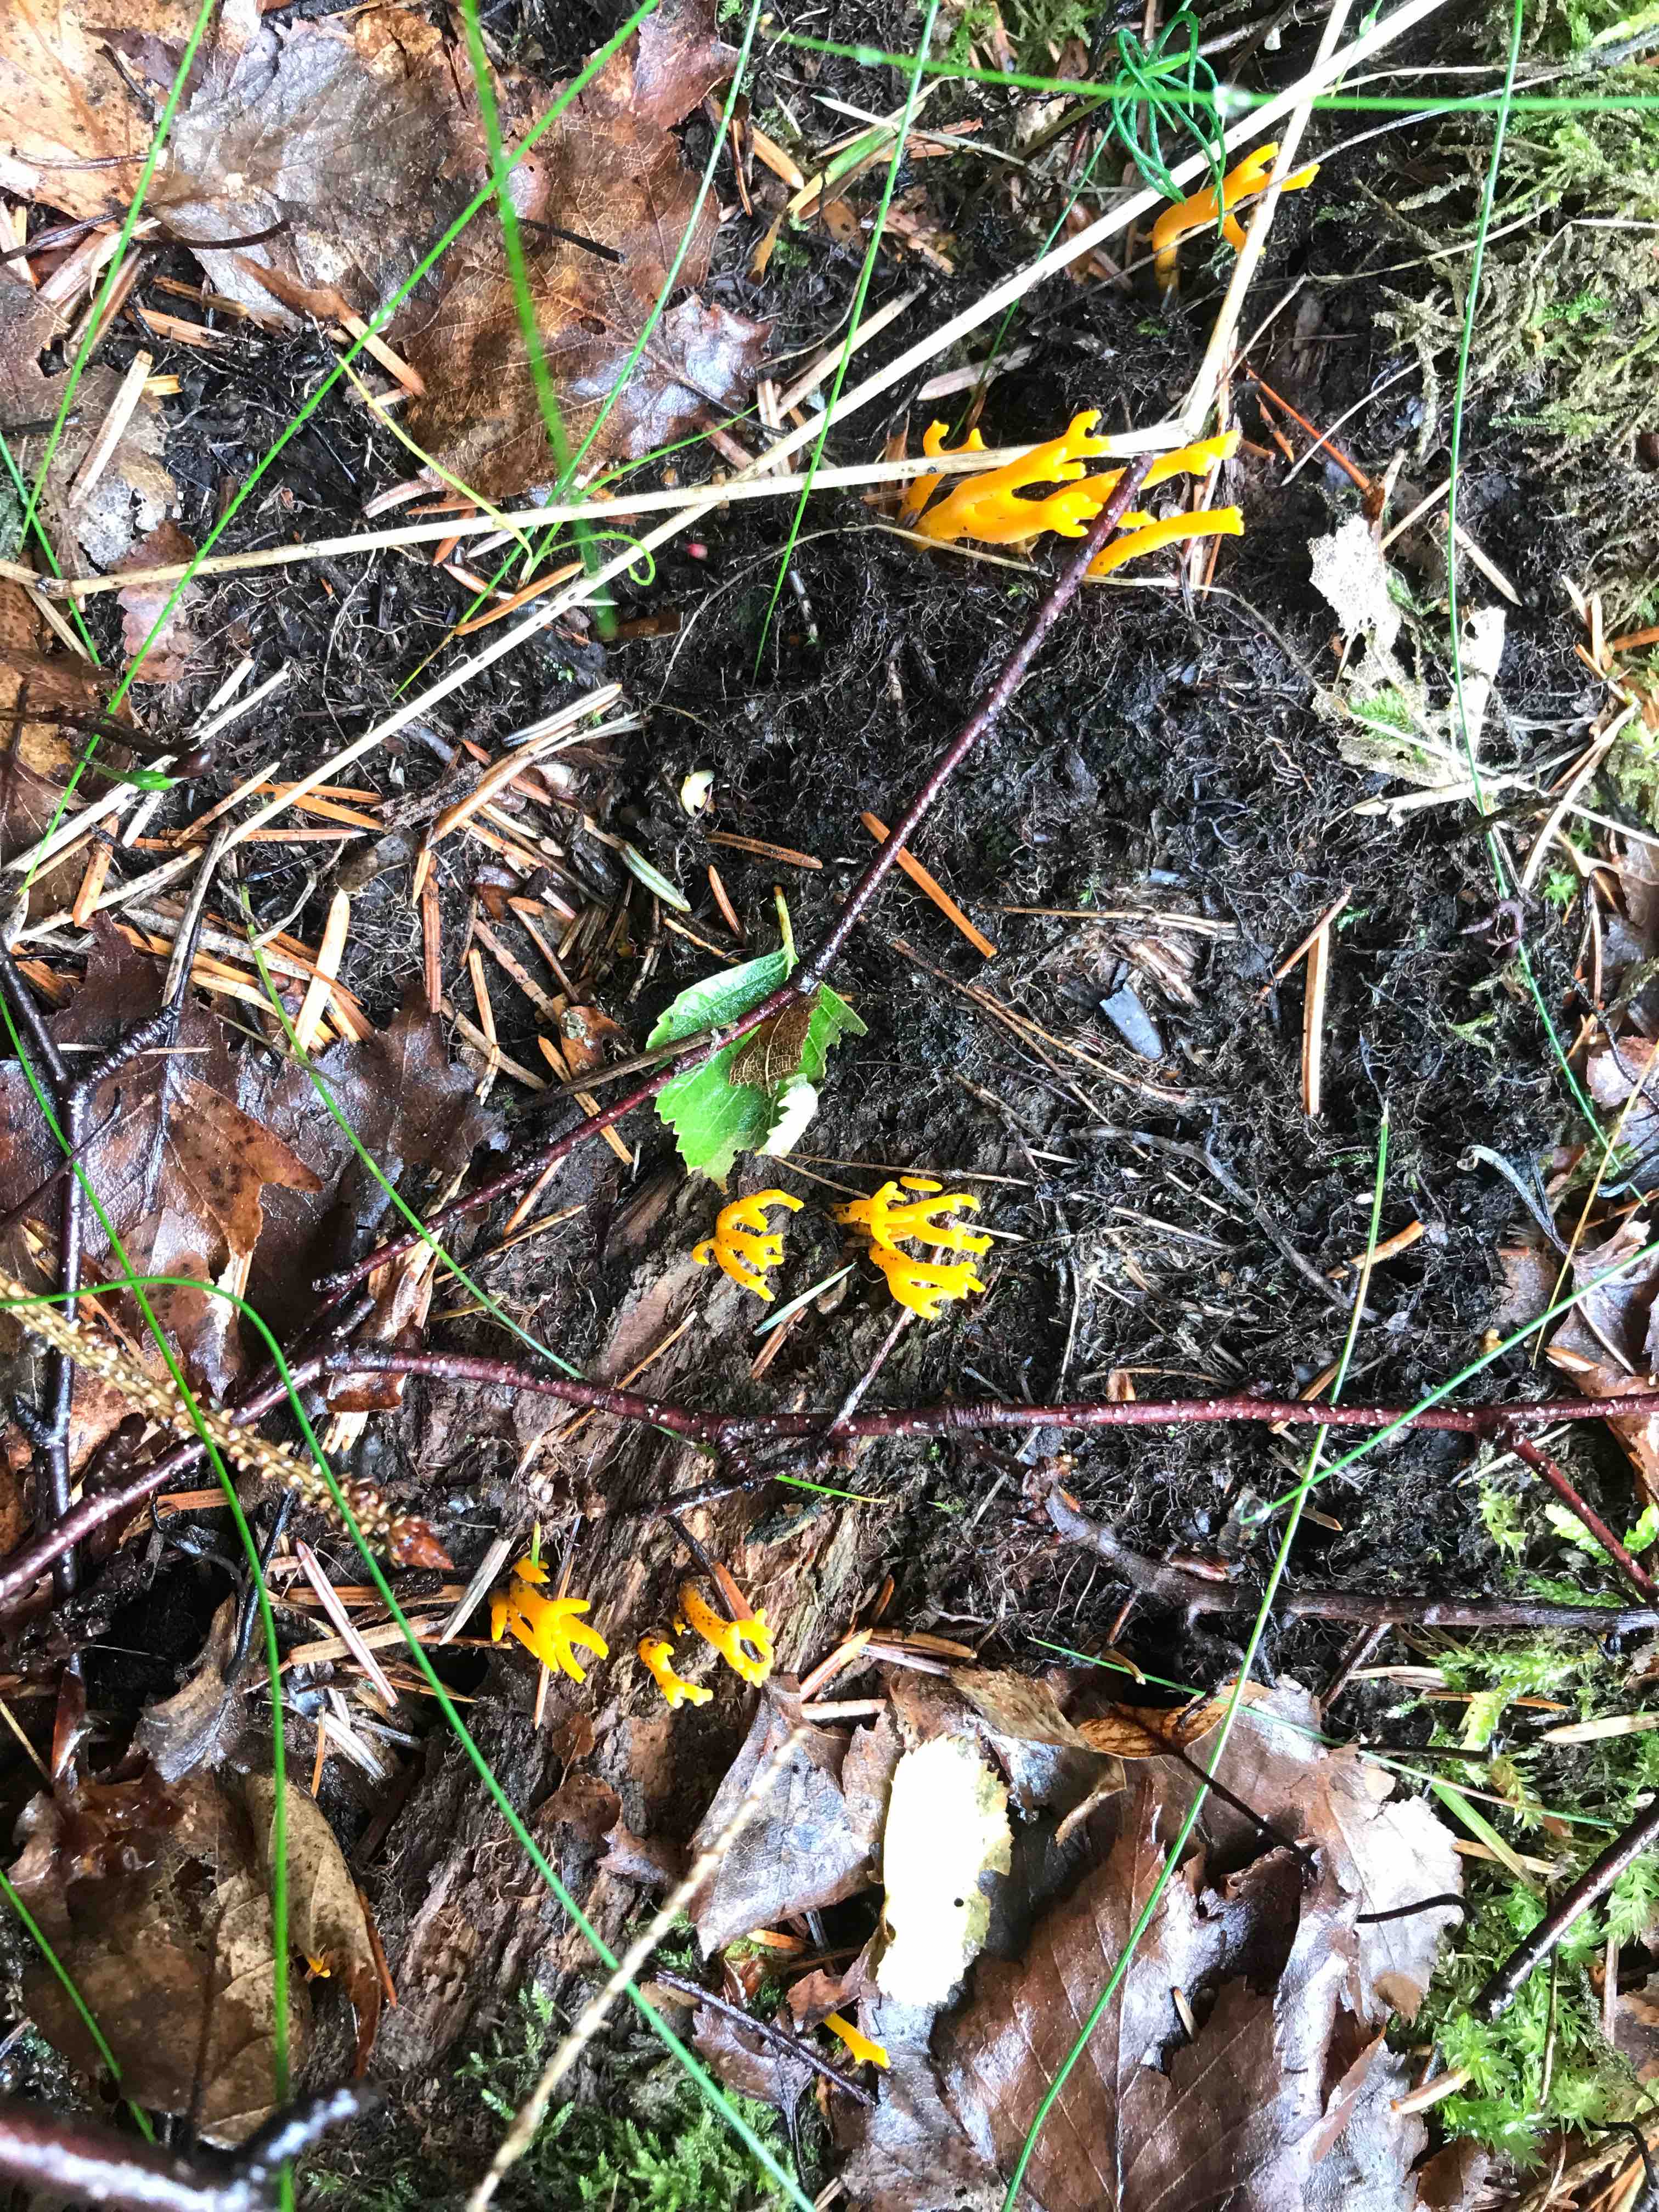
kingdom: Fungi
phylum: Basidiomycota
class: Dacrymycetes
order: Dacrymycetales
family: Dacrymycetaceae
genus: Calocera
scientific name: Calocera viscosa
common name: almindelig guldgaffel
